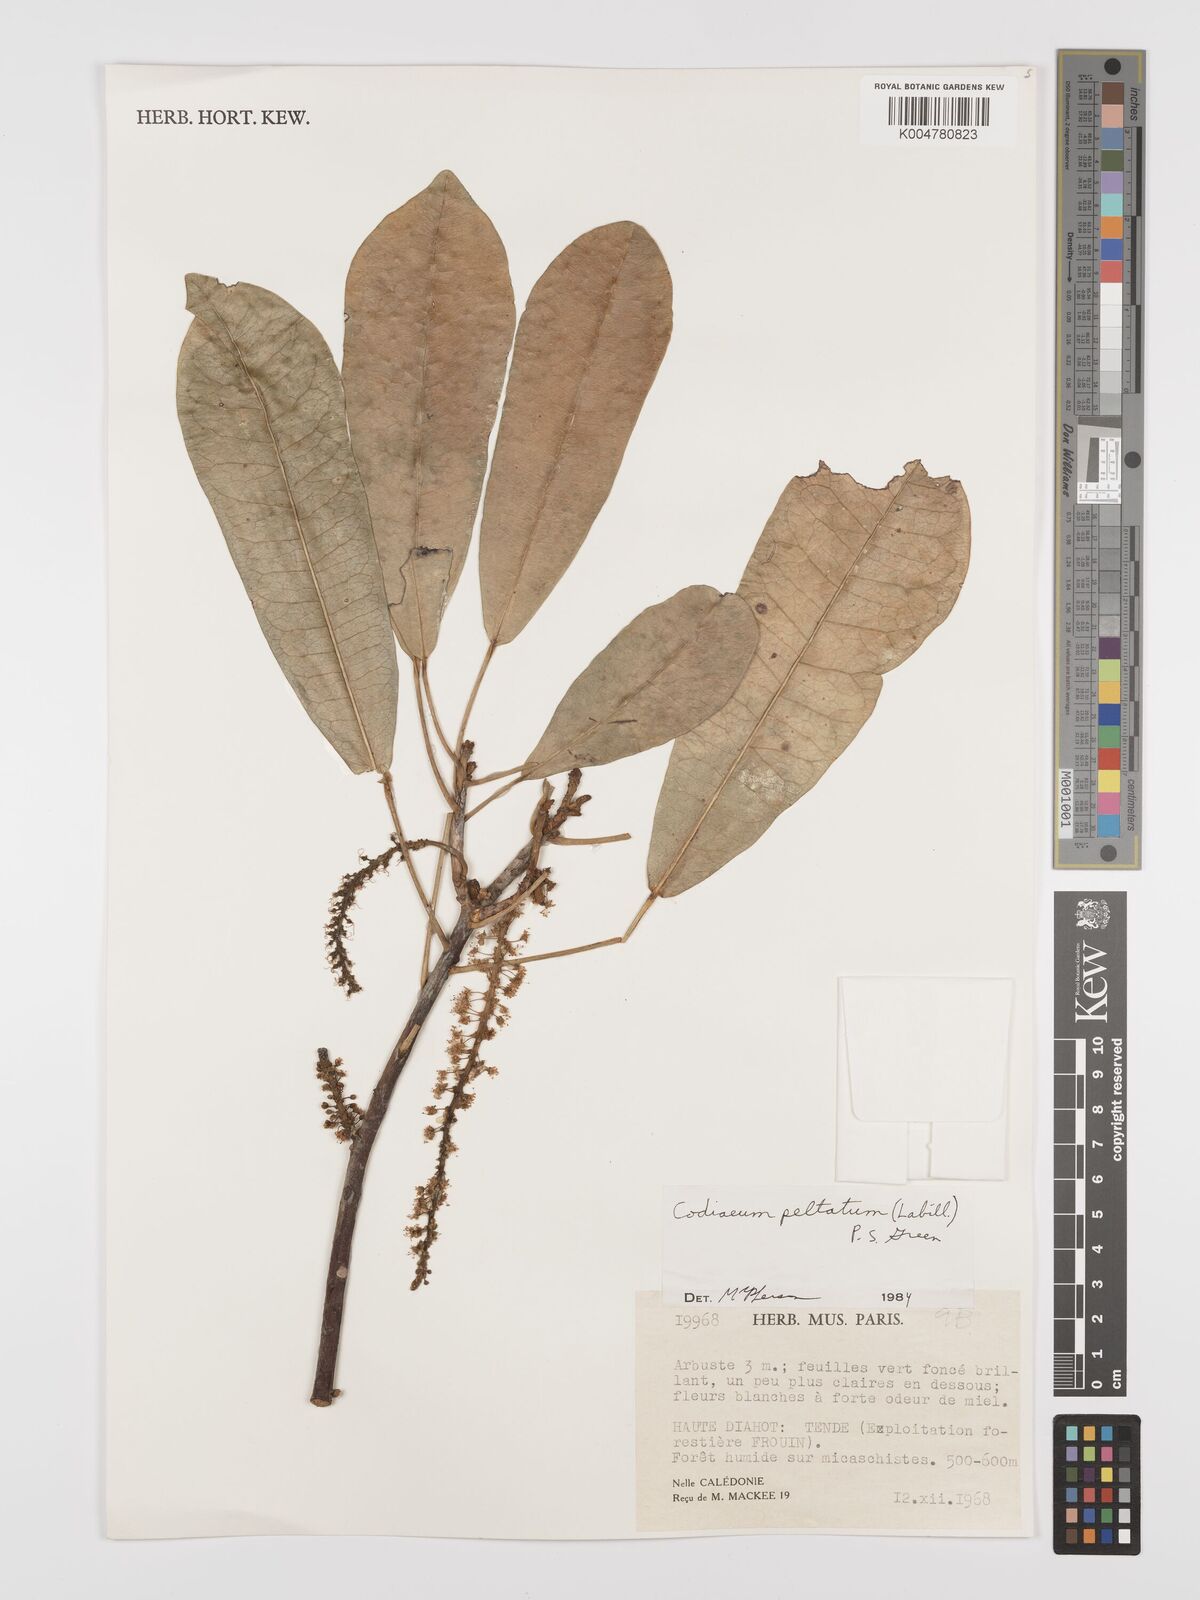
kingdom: Plantae
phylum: Tracheophyta
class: Magnoliopsida
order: Malpighiales
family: Euphorbiaceae
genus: Codiaeum
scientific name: Codiaeum peltatum
